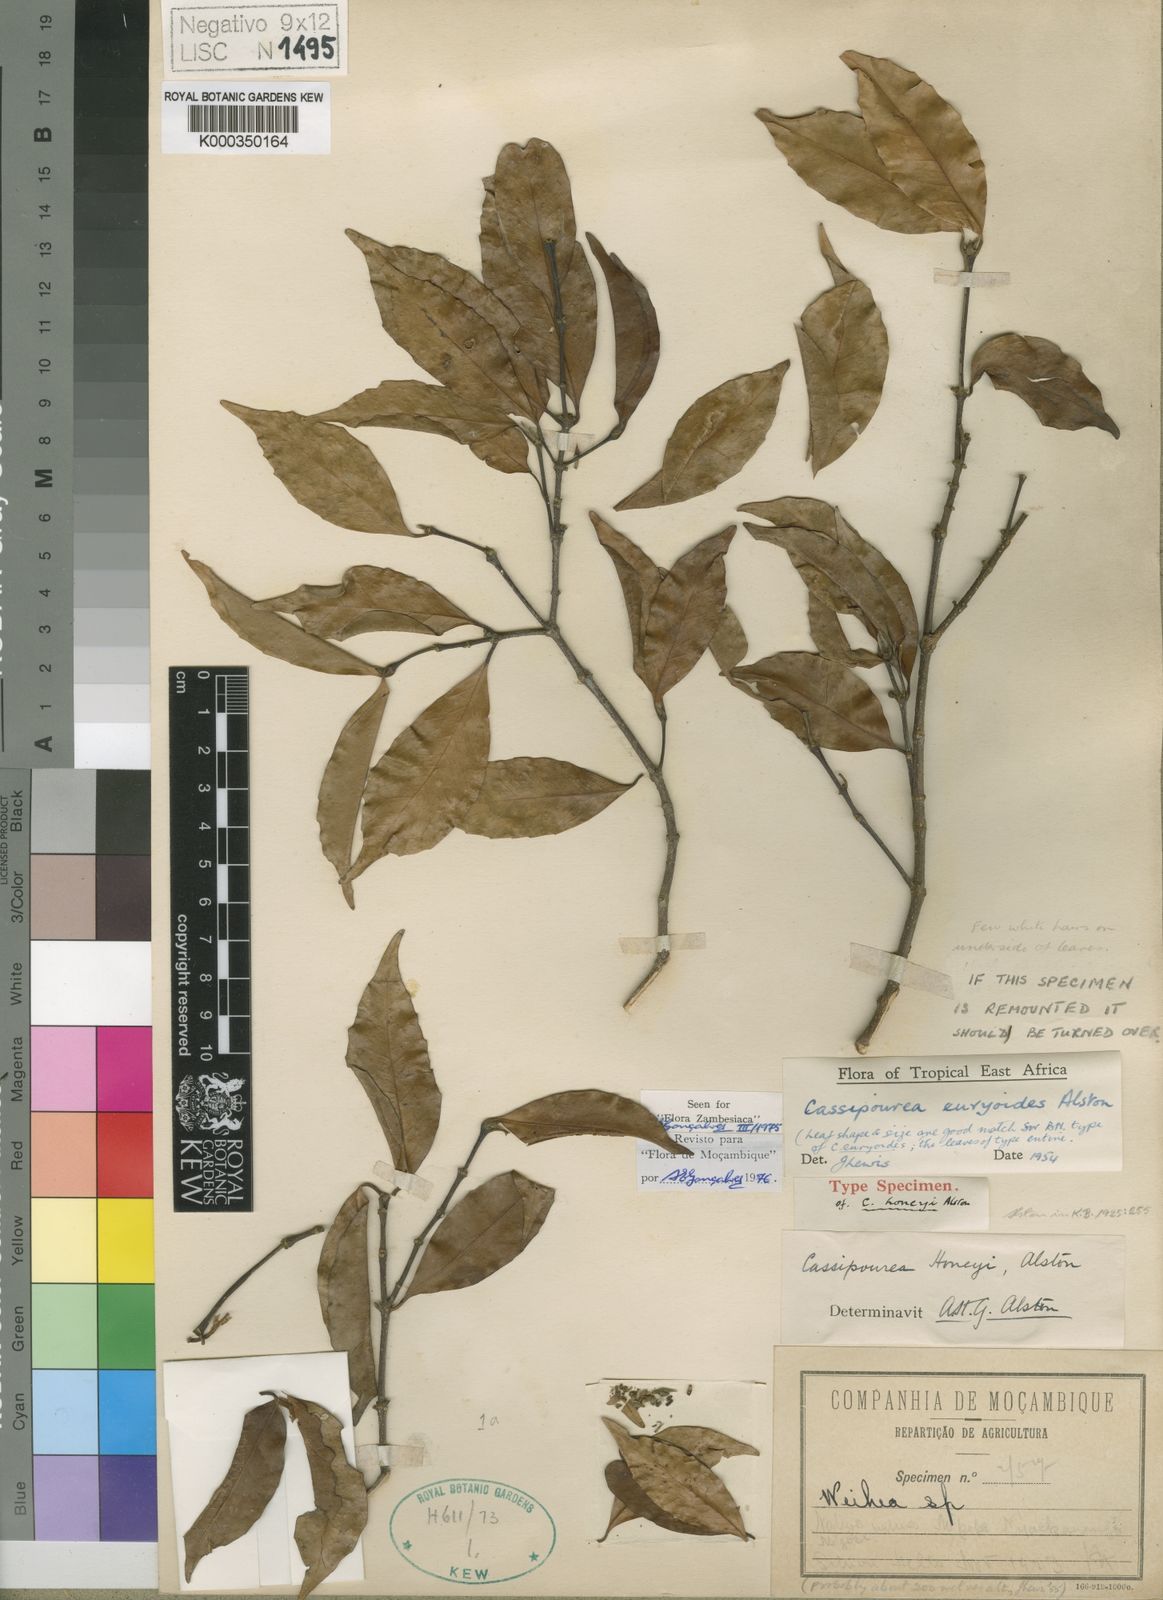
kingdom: Plantae
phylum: Tracheophyta
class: Magnoliopsida
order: Malpighiales
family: Rhizophoraceae
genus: Cassipourea
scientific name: Cassipourea euryoides
